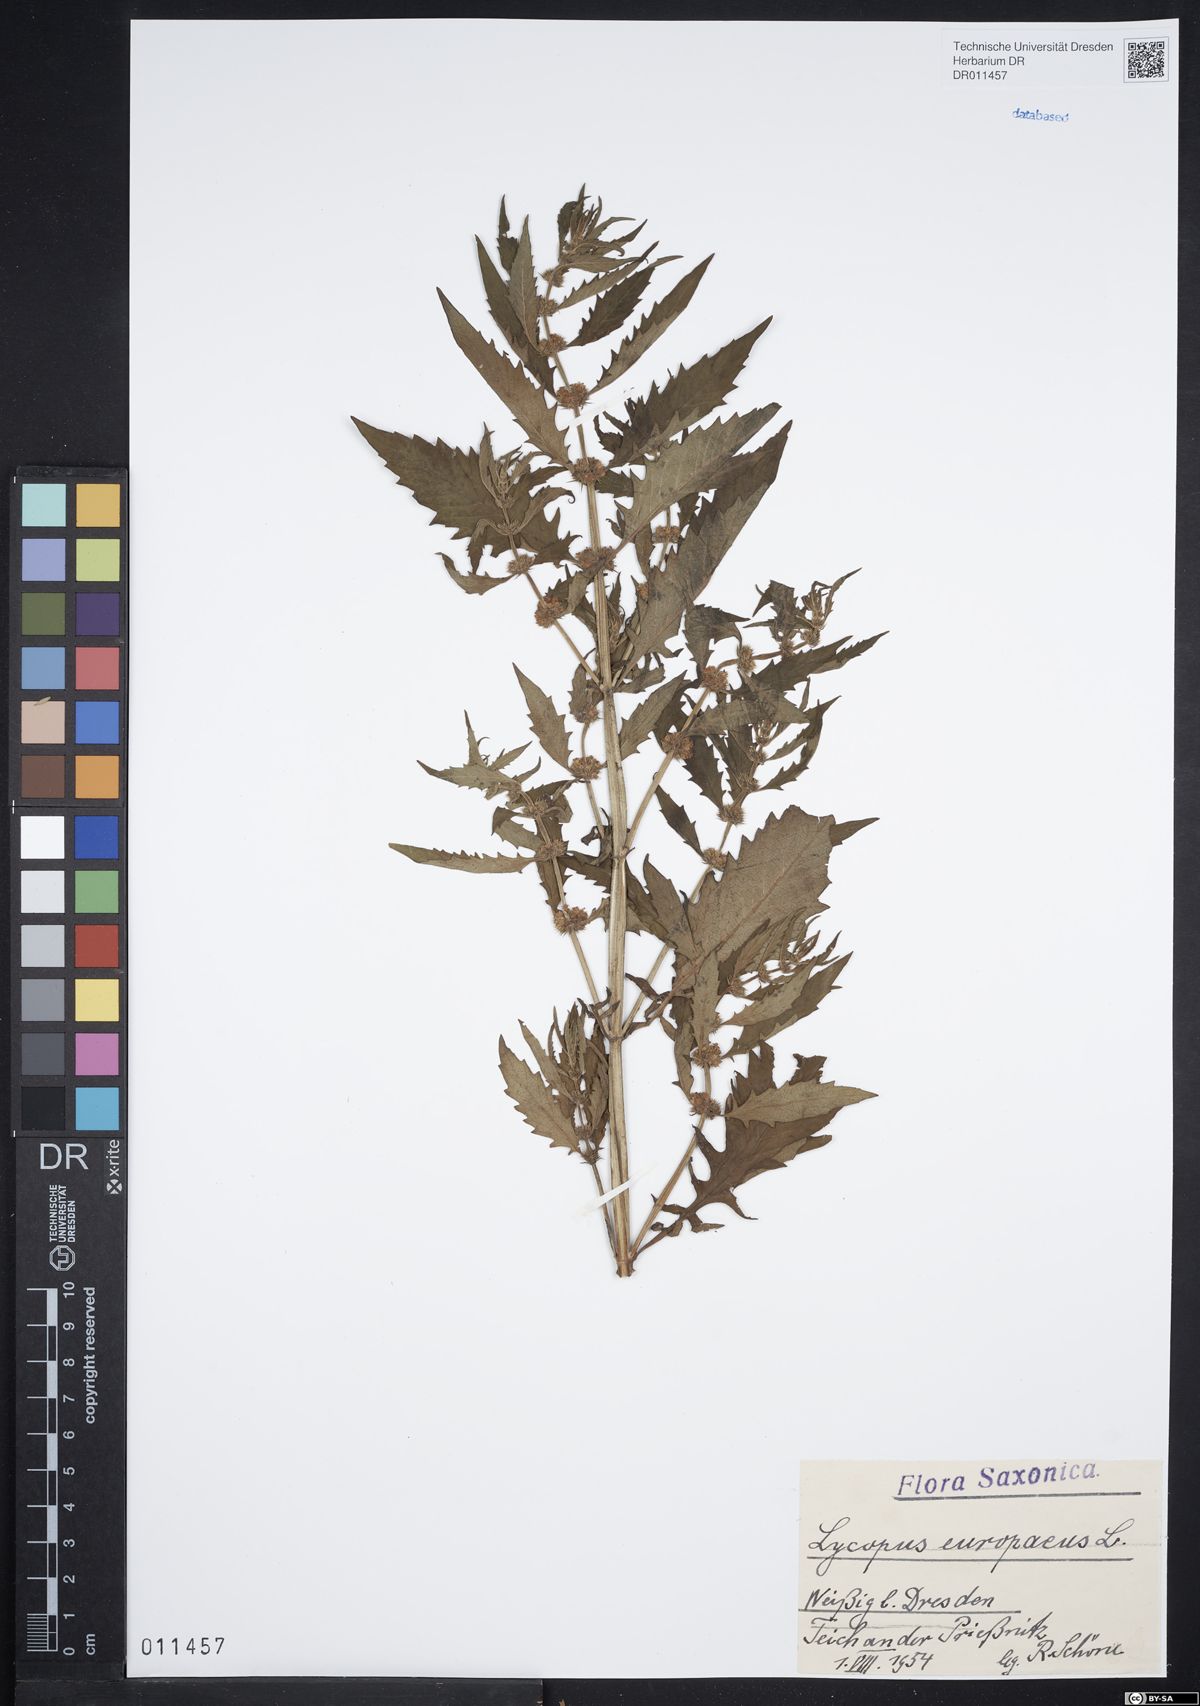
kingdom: Plantae
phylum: Tracheophyta
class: Magnoliopsida
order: Lamiales
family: Lamiaceae
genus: Lycopus
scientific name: Lycopus europaeus
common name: European bugleweed
